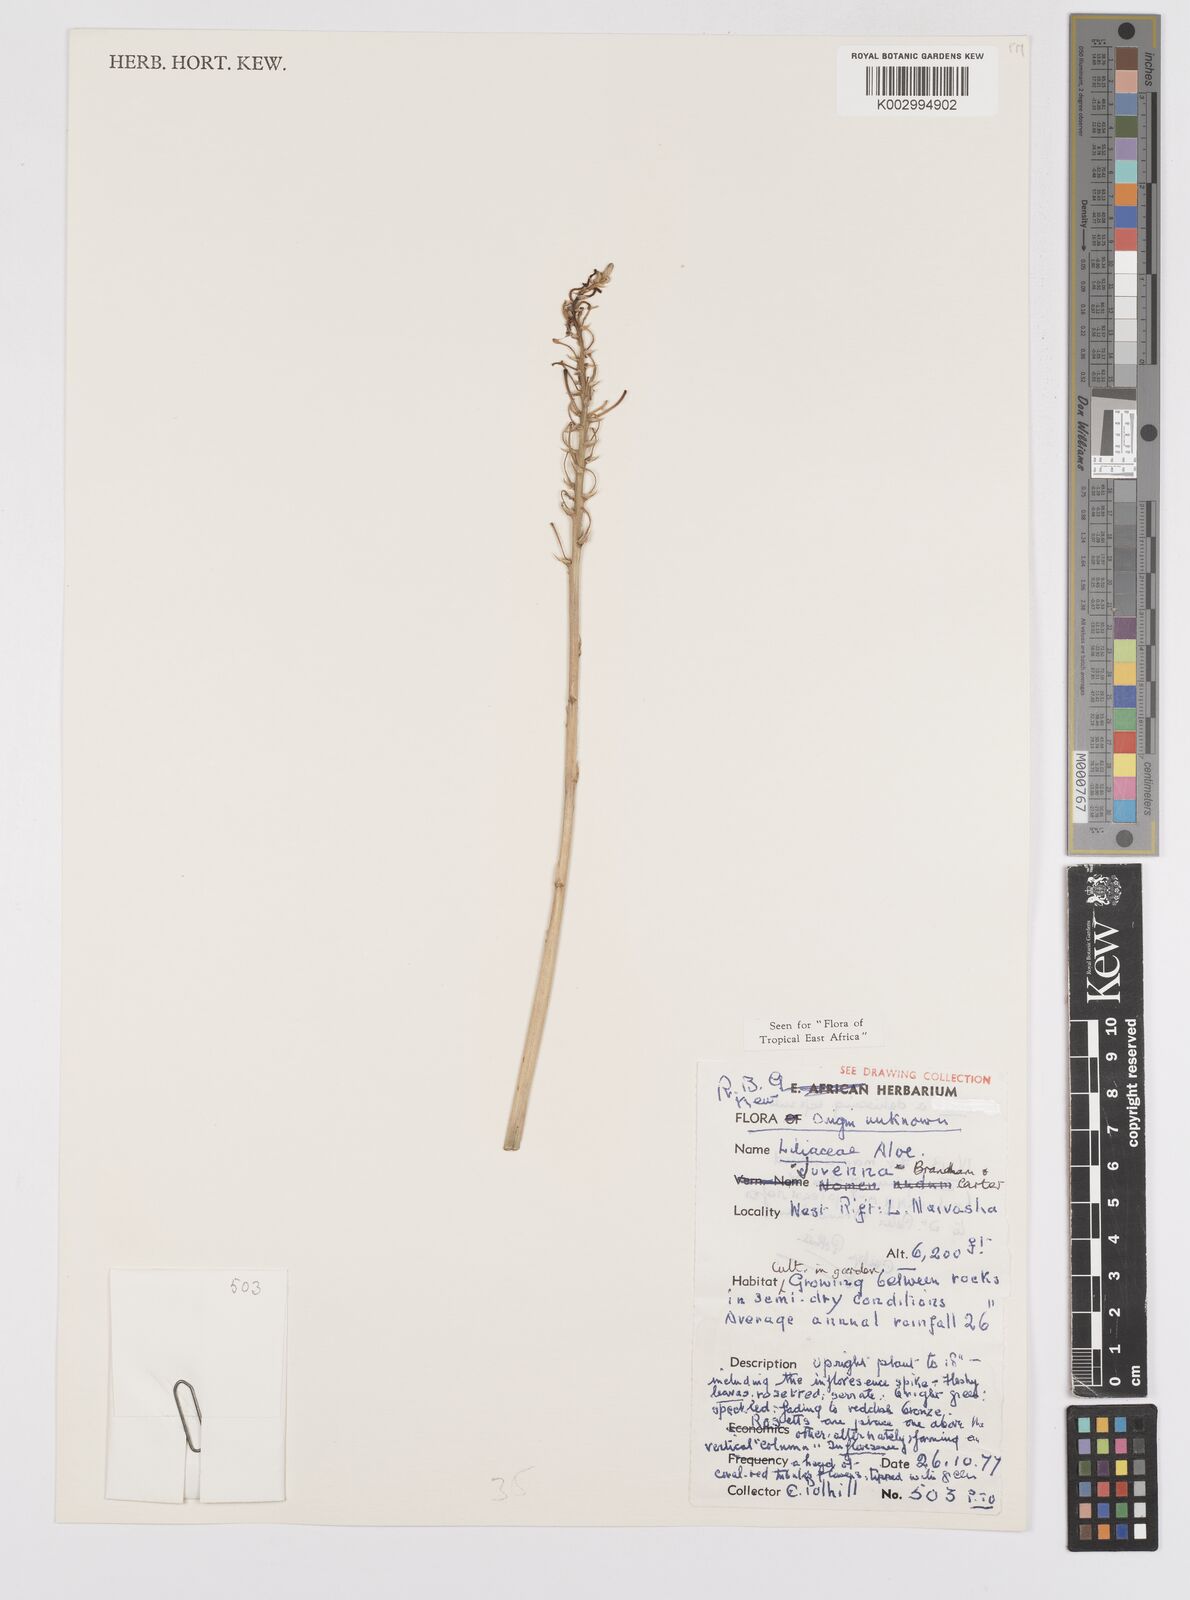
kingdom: Plantae
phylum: Tracheophyta
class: Liliopsida
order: Asparagales
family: Asphodelaceae
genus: Aloe
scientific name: Aloe juvenna
